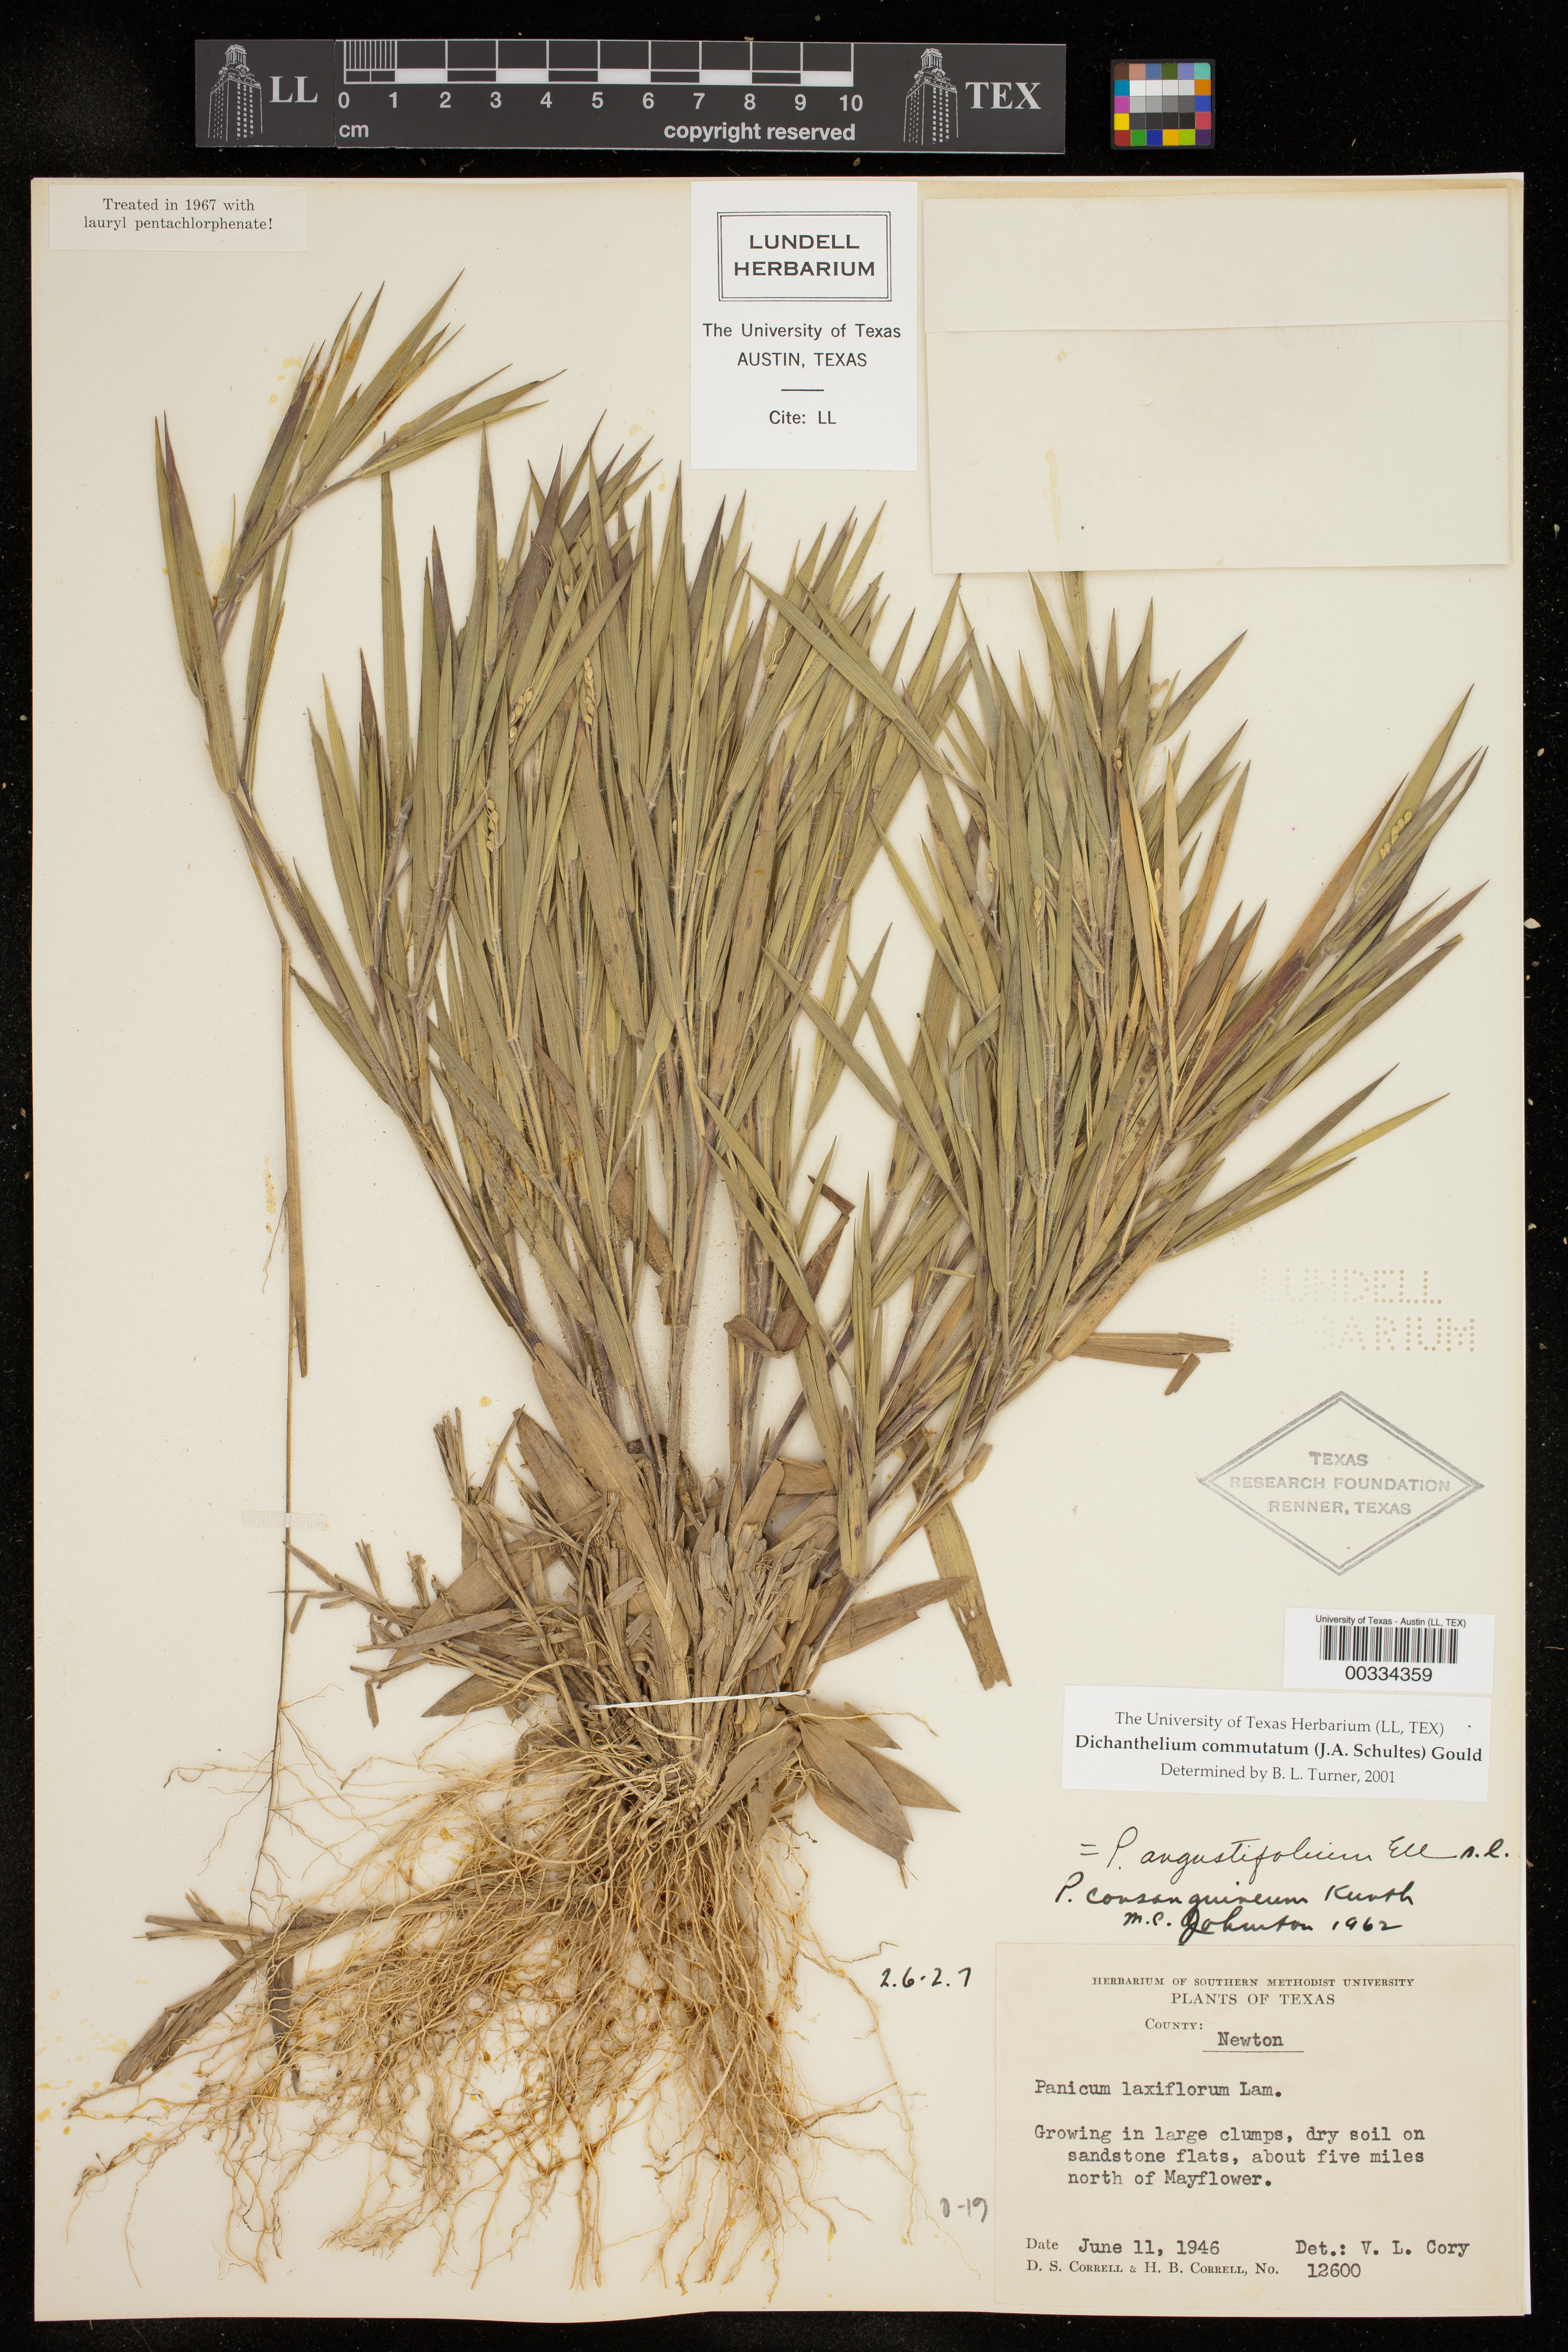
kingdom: Plantae
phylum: Tracheophyta
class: Liliopsida
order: Poales
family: Poaceae
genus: Dichanthelium
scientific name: Dichanthelium commutatum
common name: Variable witchgrass
